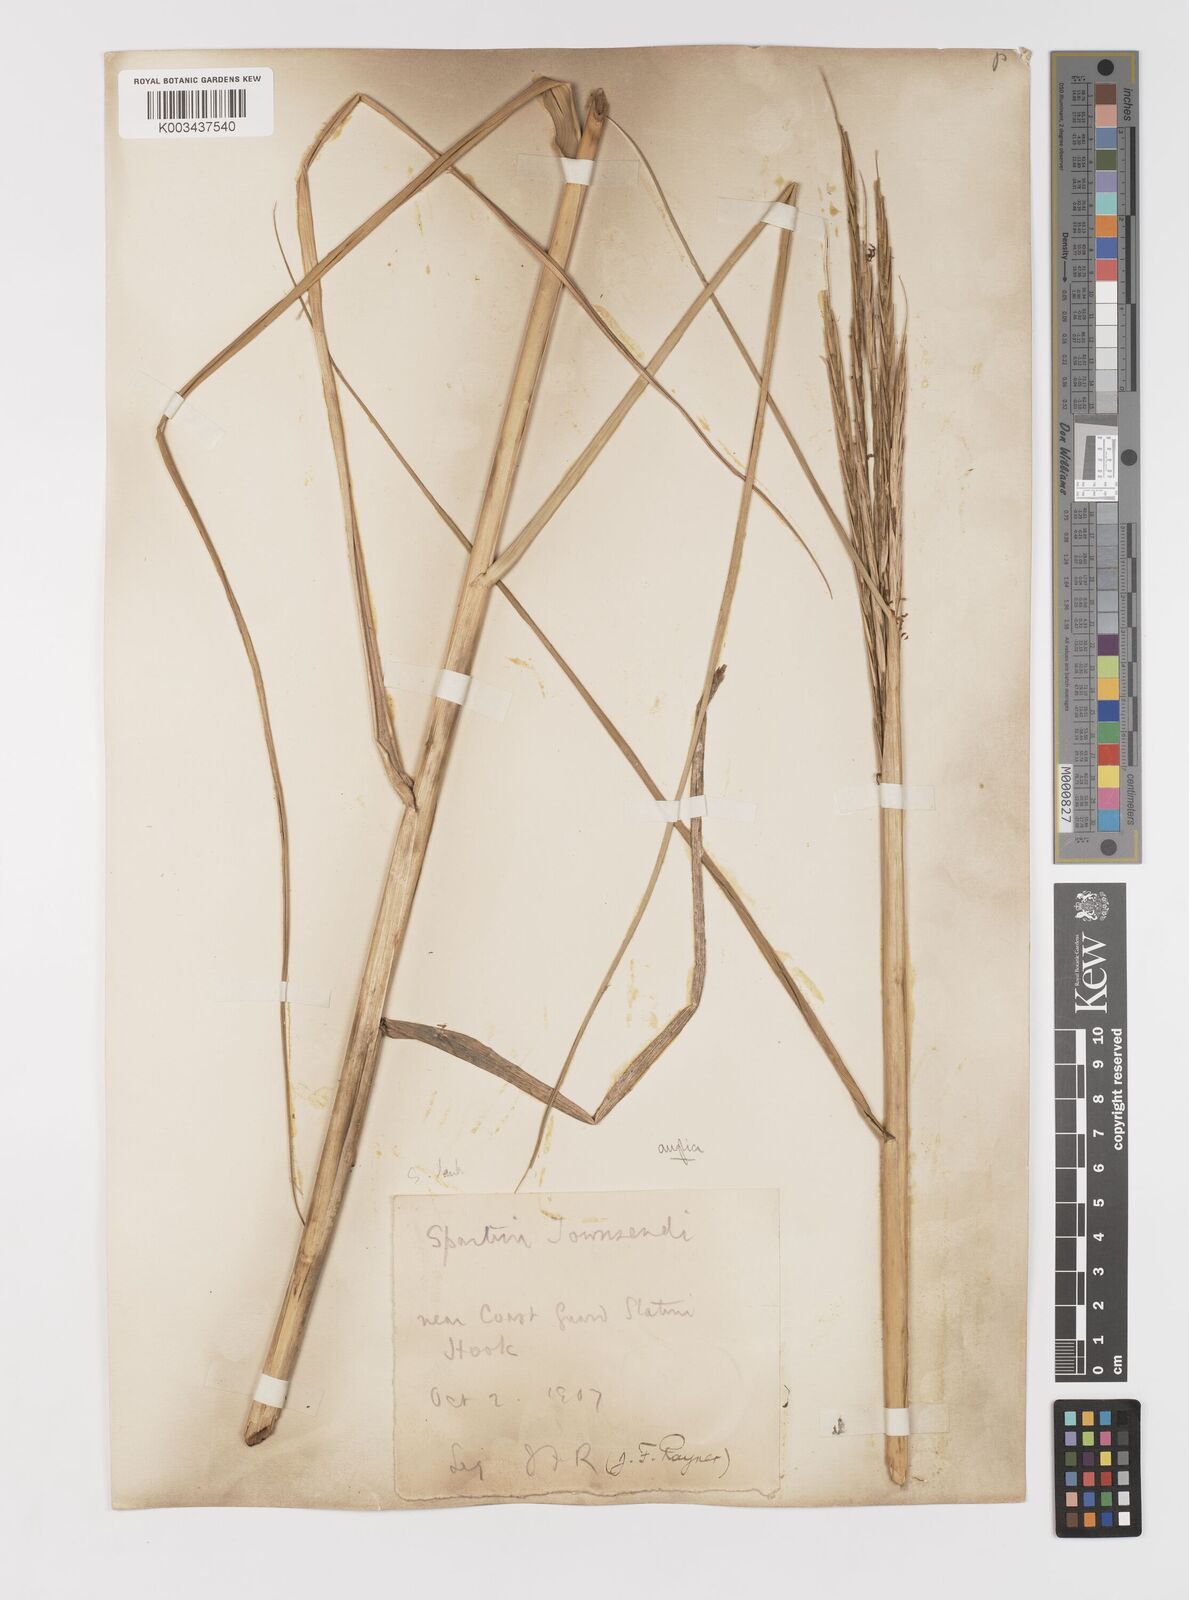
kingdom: Plantae
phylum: Tracheophyta
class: Liliopsida
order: Poales
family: Poaceae
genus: Sporobolus
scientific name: Sporobolus anglicus
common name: English cordgrass
